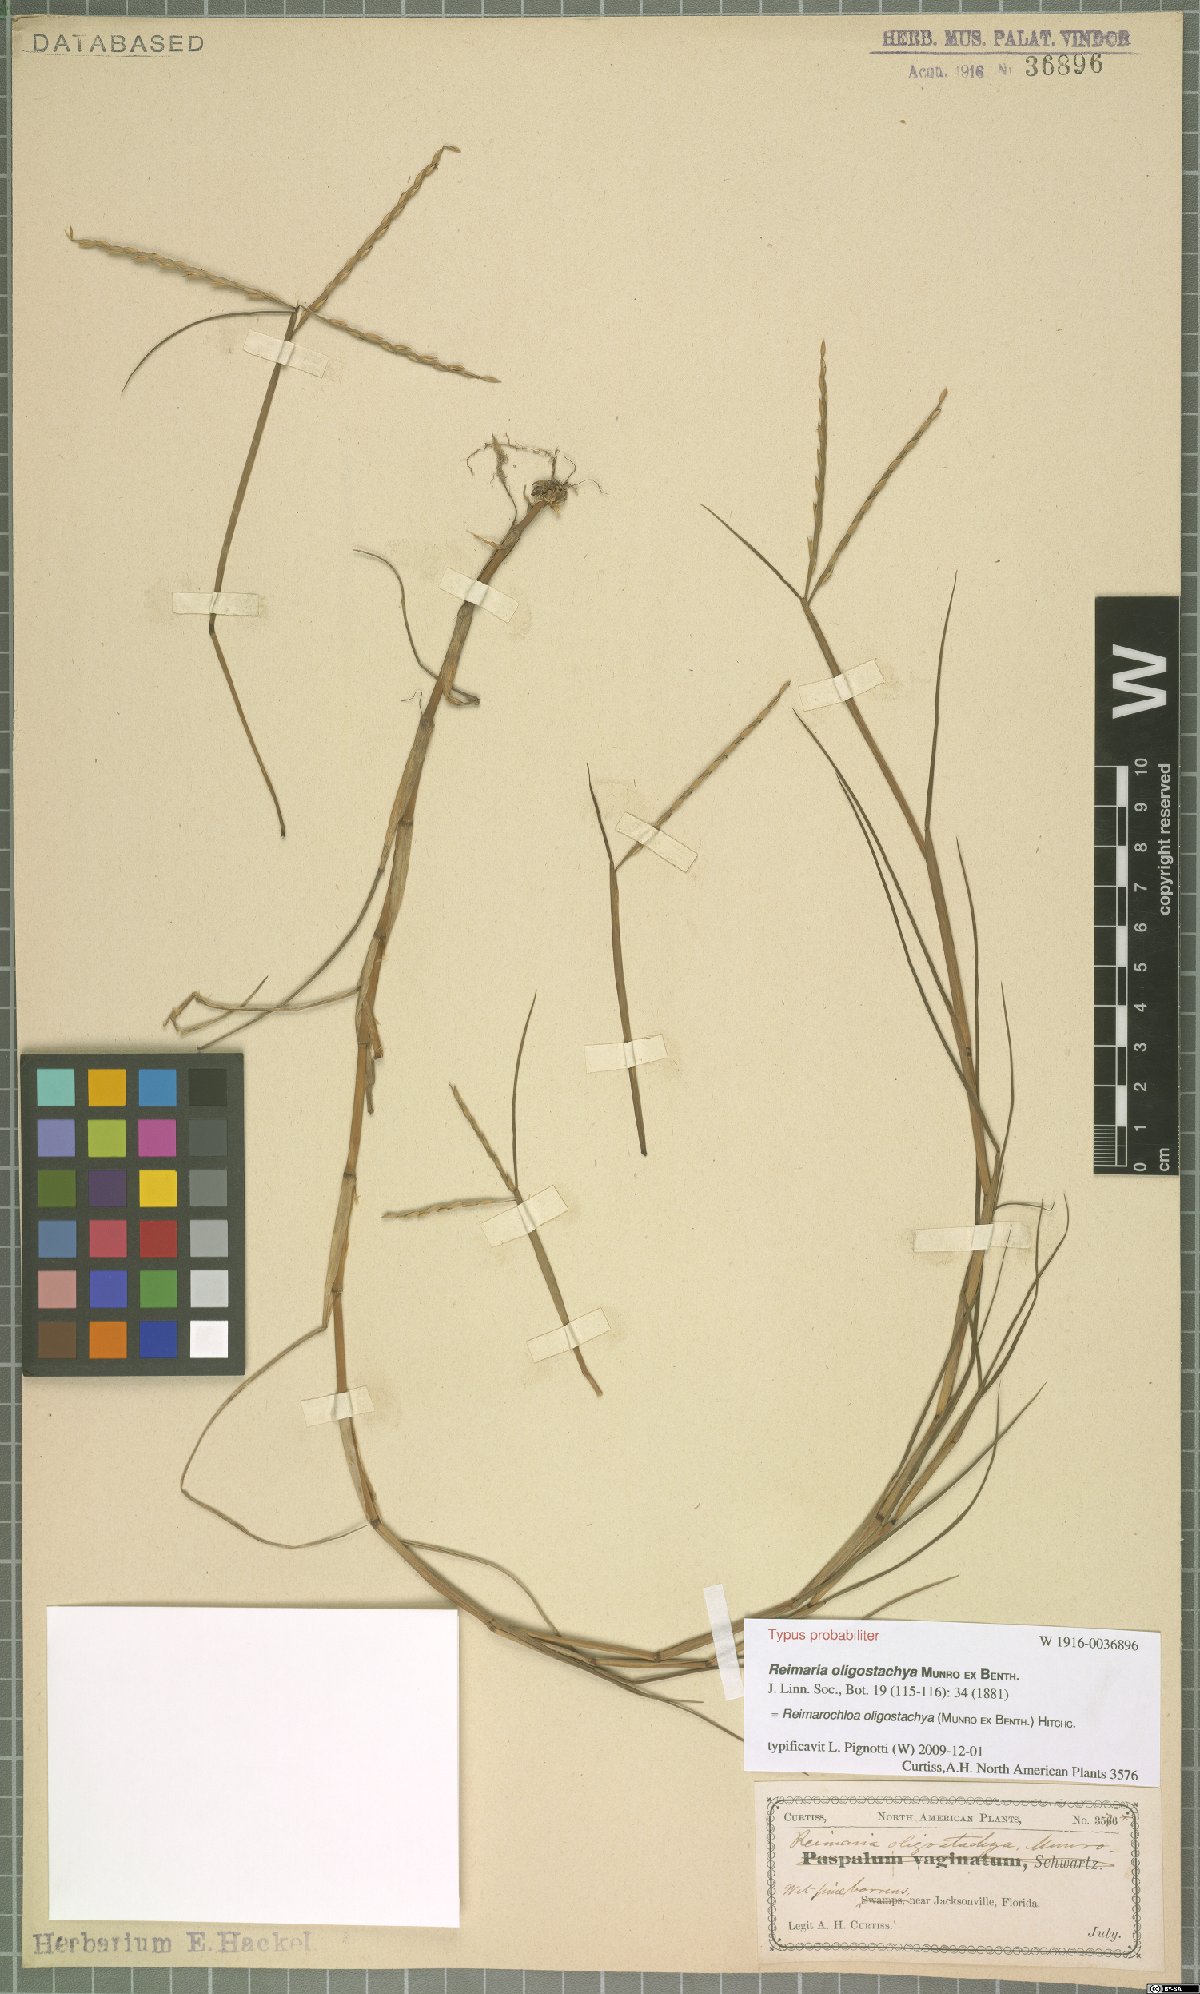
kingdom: Plantae
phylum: Tracheophyta
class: Liliopsida
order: Poales
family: Poaceae
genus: Paspalum
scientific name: Paspalum eglume
